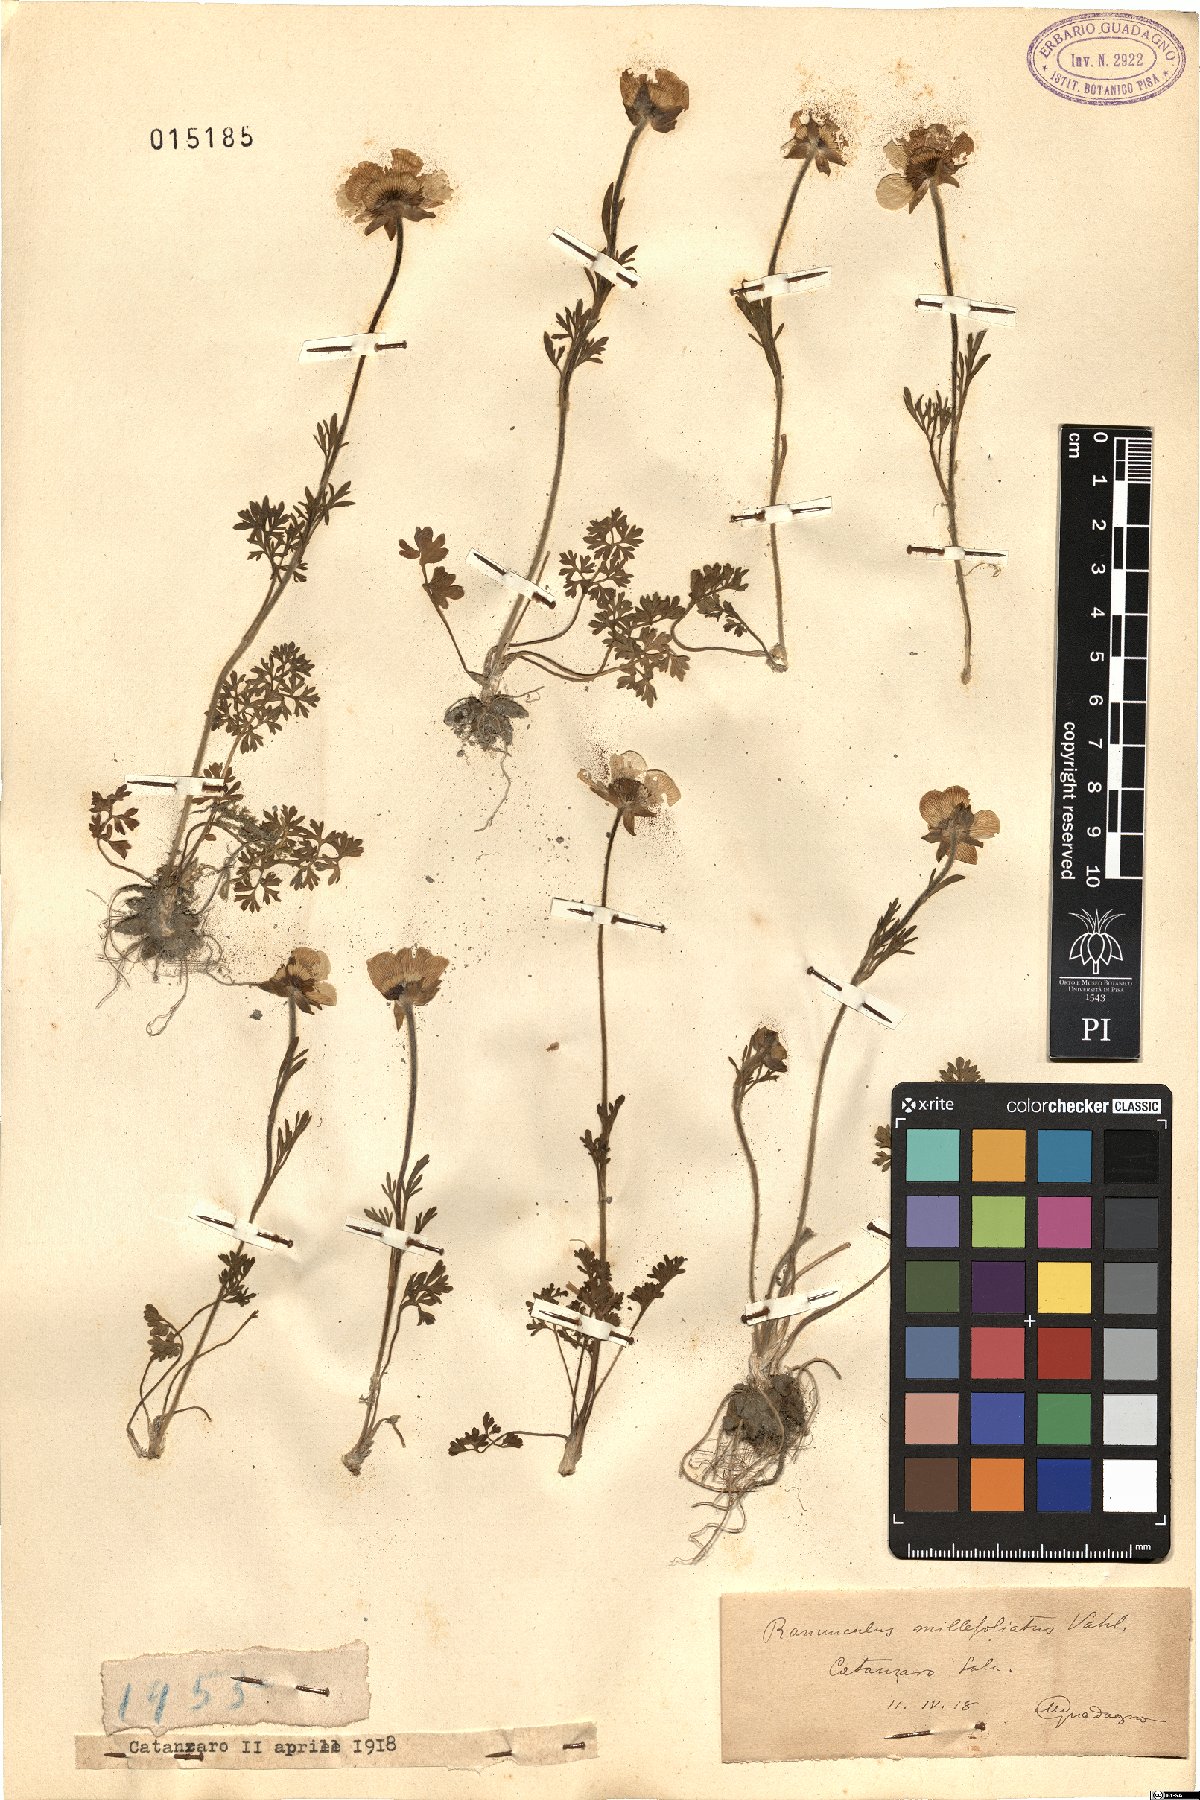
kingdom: Plantae
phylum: Tracheophyta
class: Magnoliopsida
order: Ranunculales
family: Ranunculaceae
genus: Ranunculus
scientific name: Ranunculus millefoliatus
